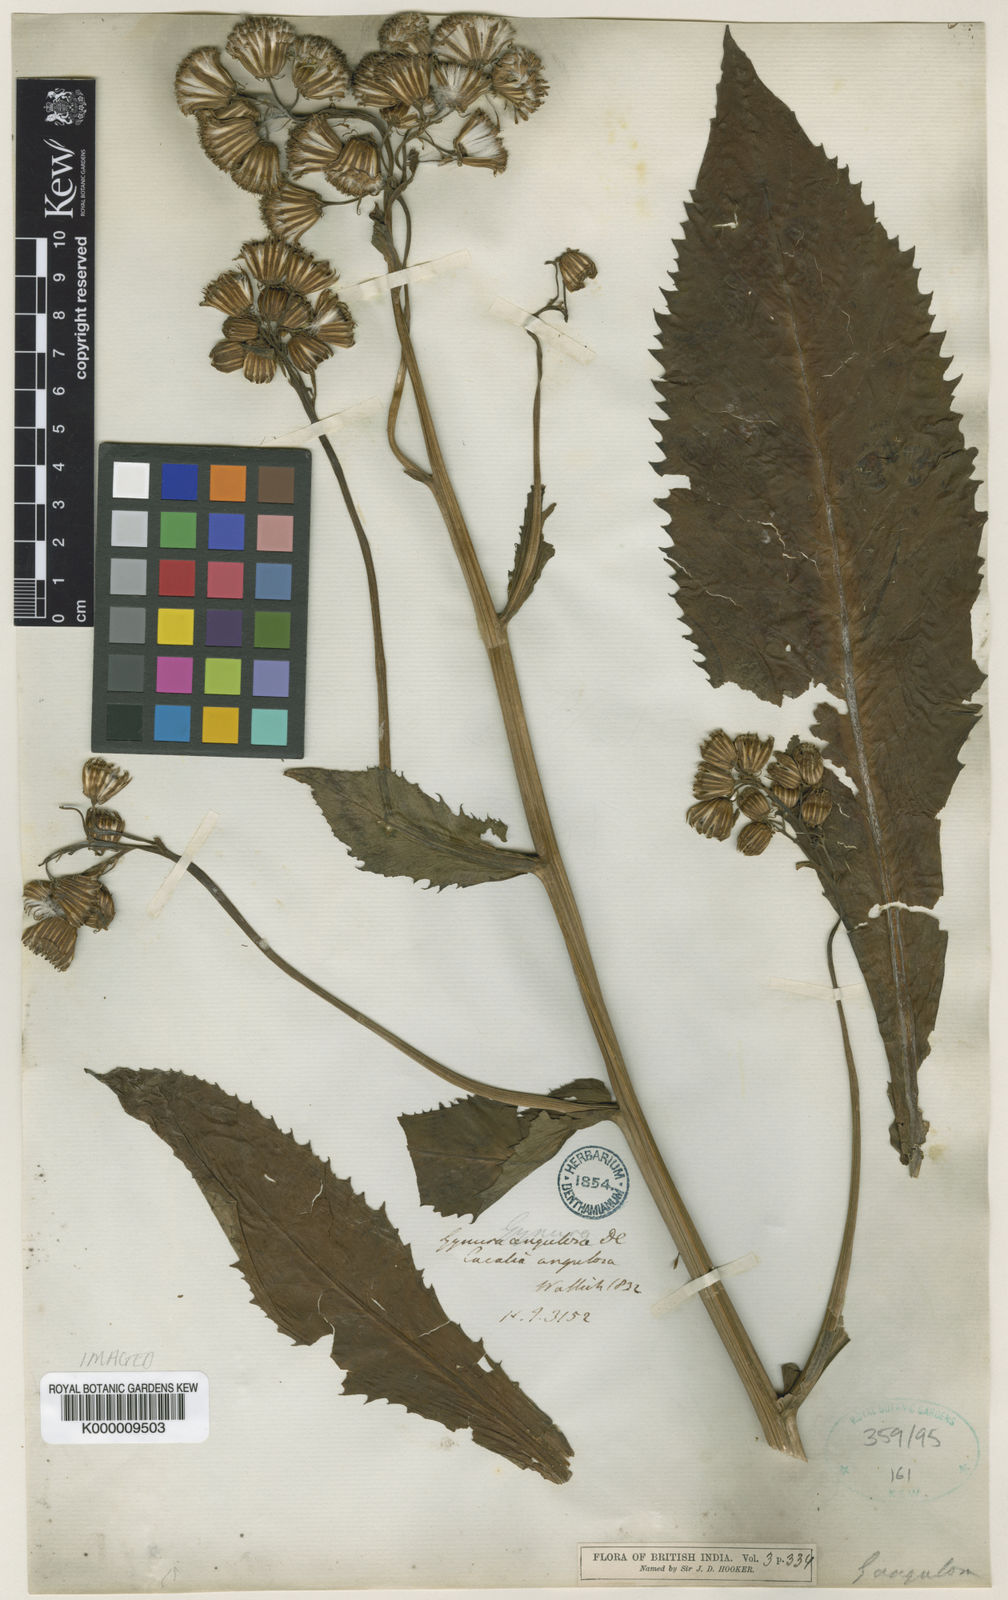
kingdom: Plantae
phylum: Tracheophyta
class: Magnoliopsida
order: Asterales
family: Asteraceae
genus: Gynura
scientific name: Gynura bicolor
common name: Red-vegetable
